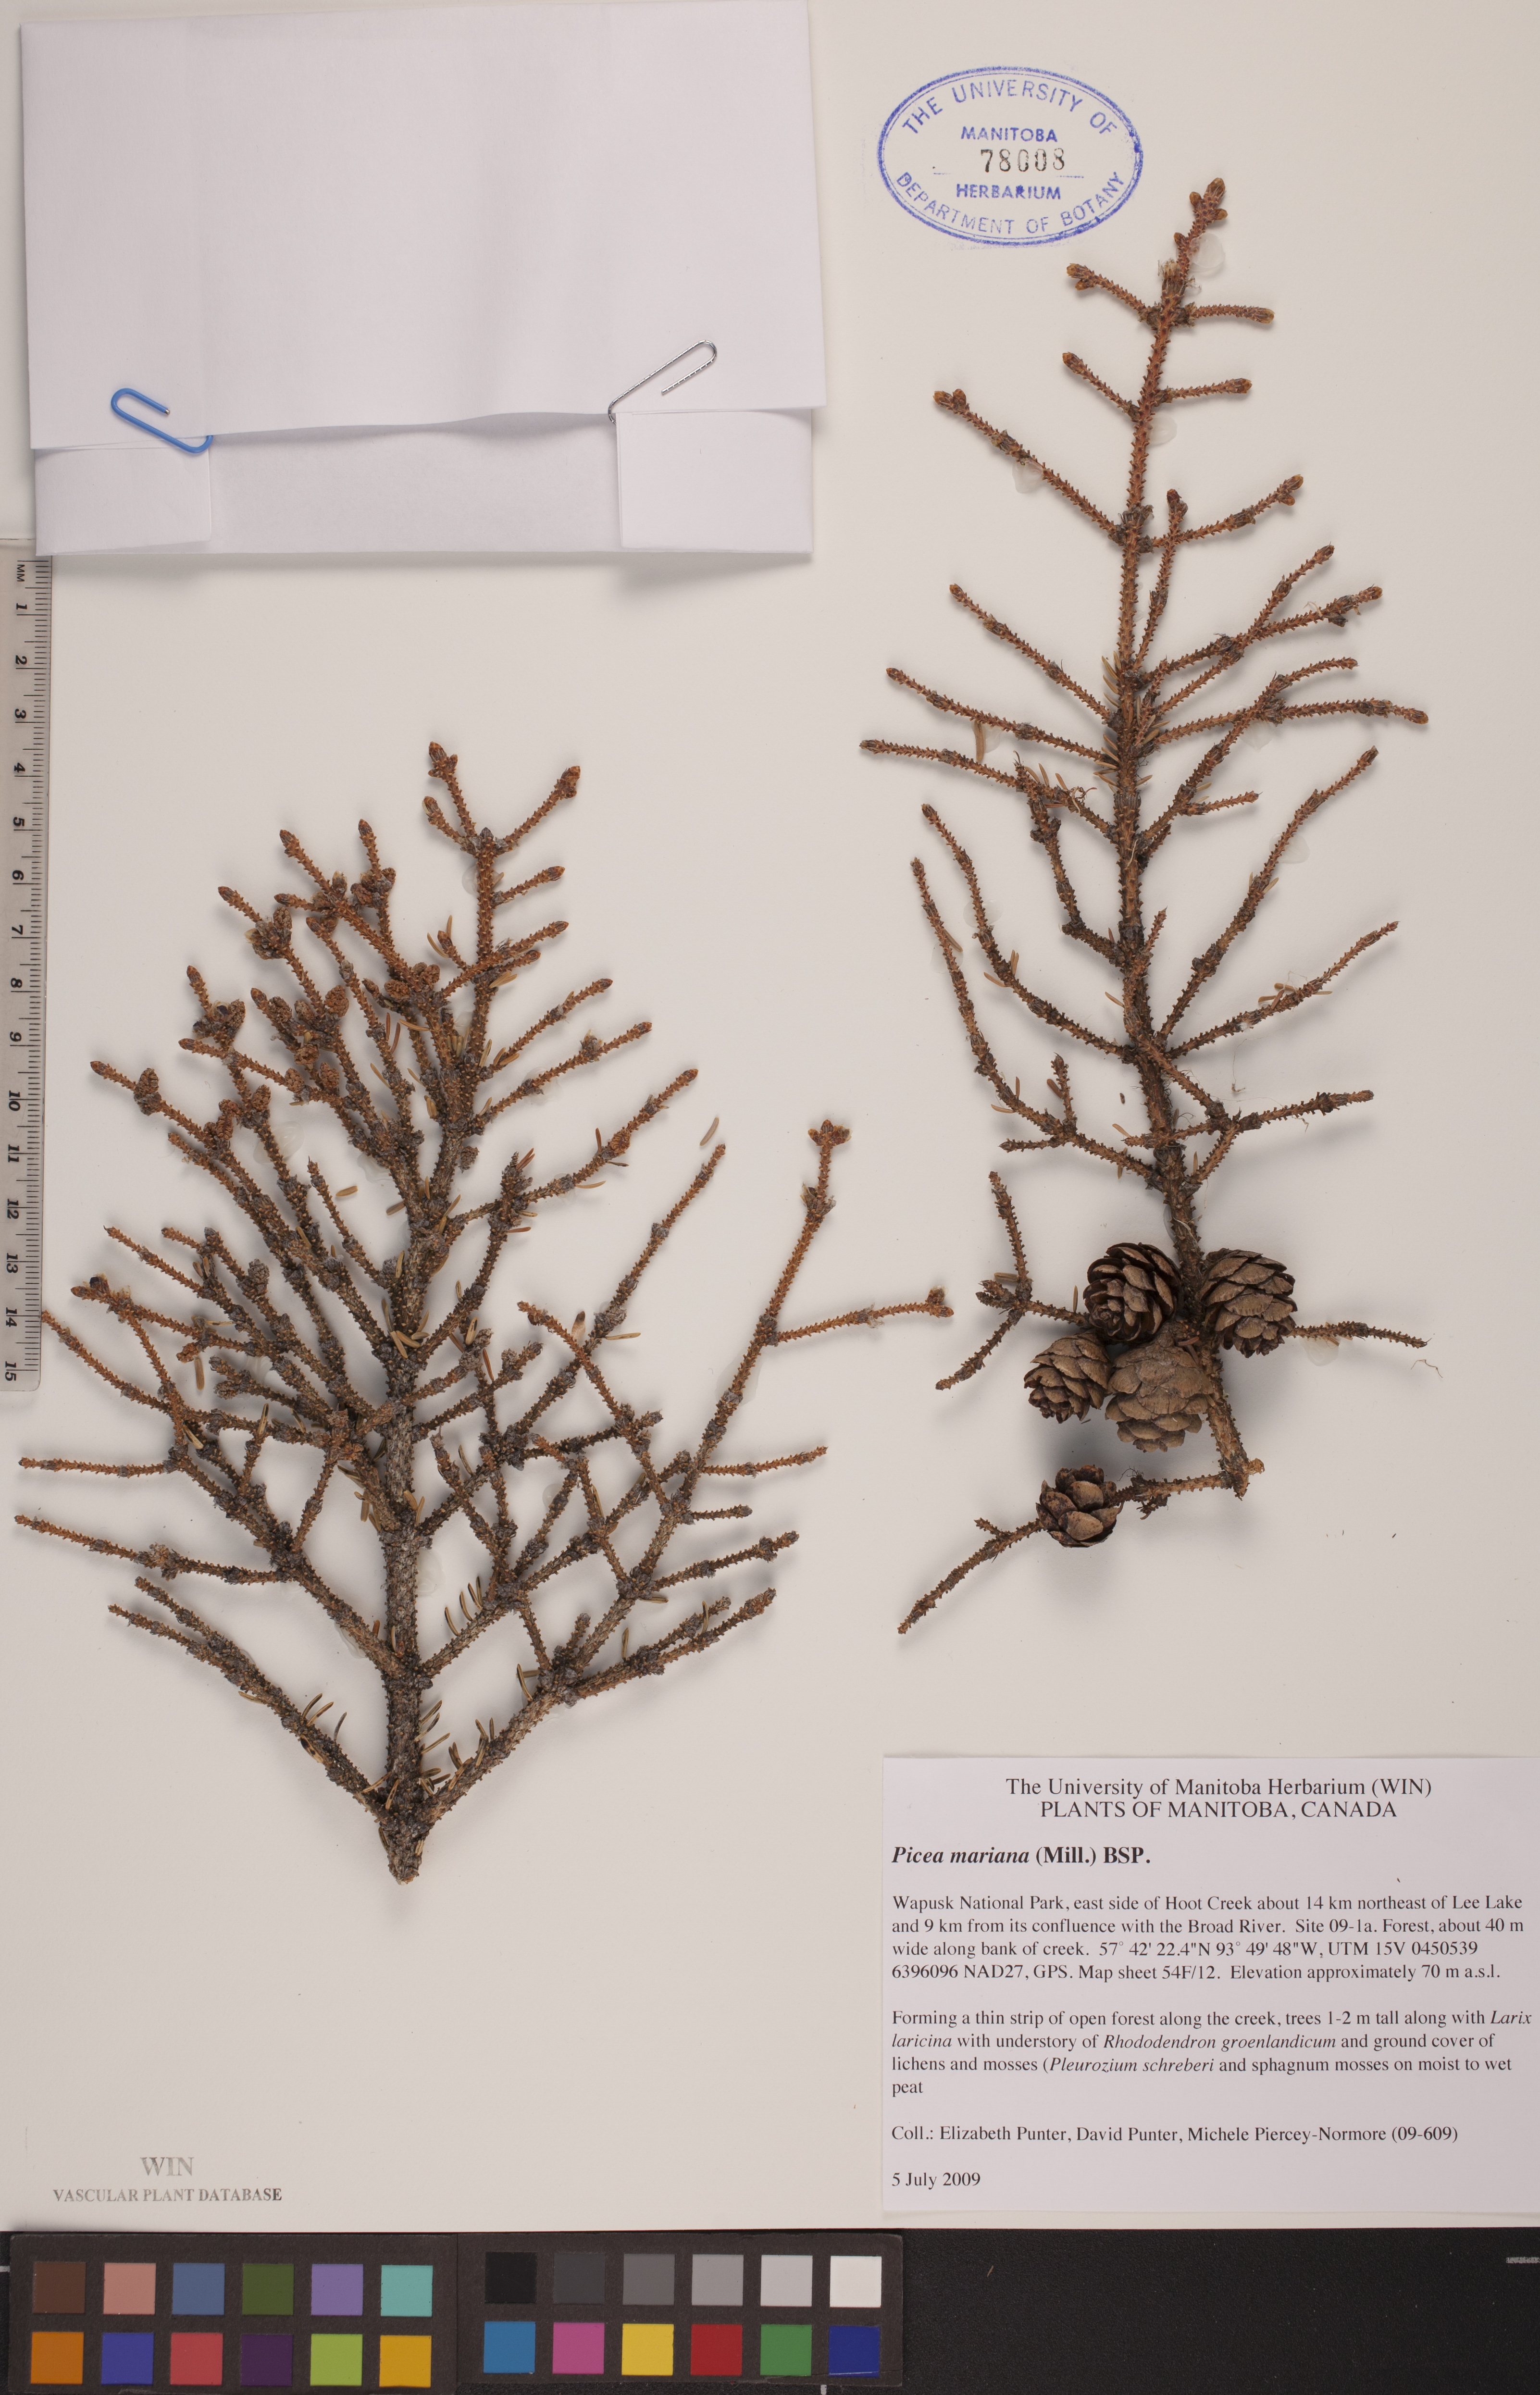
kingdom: Plantae
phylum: Tracheophyta
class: Pinopsida
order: Pinales
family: Pinaceae
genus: Picea
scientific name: Picea mariana
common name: Black spruce
